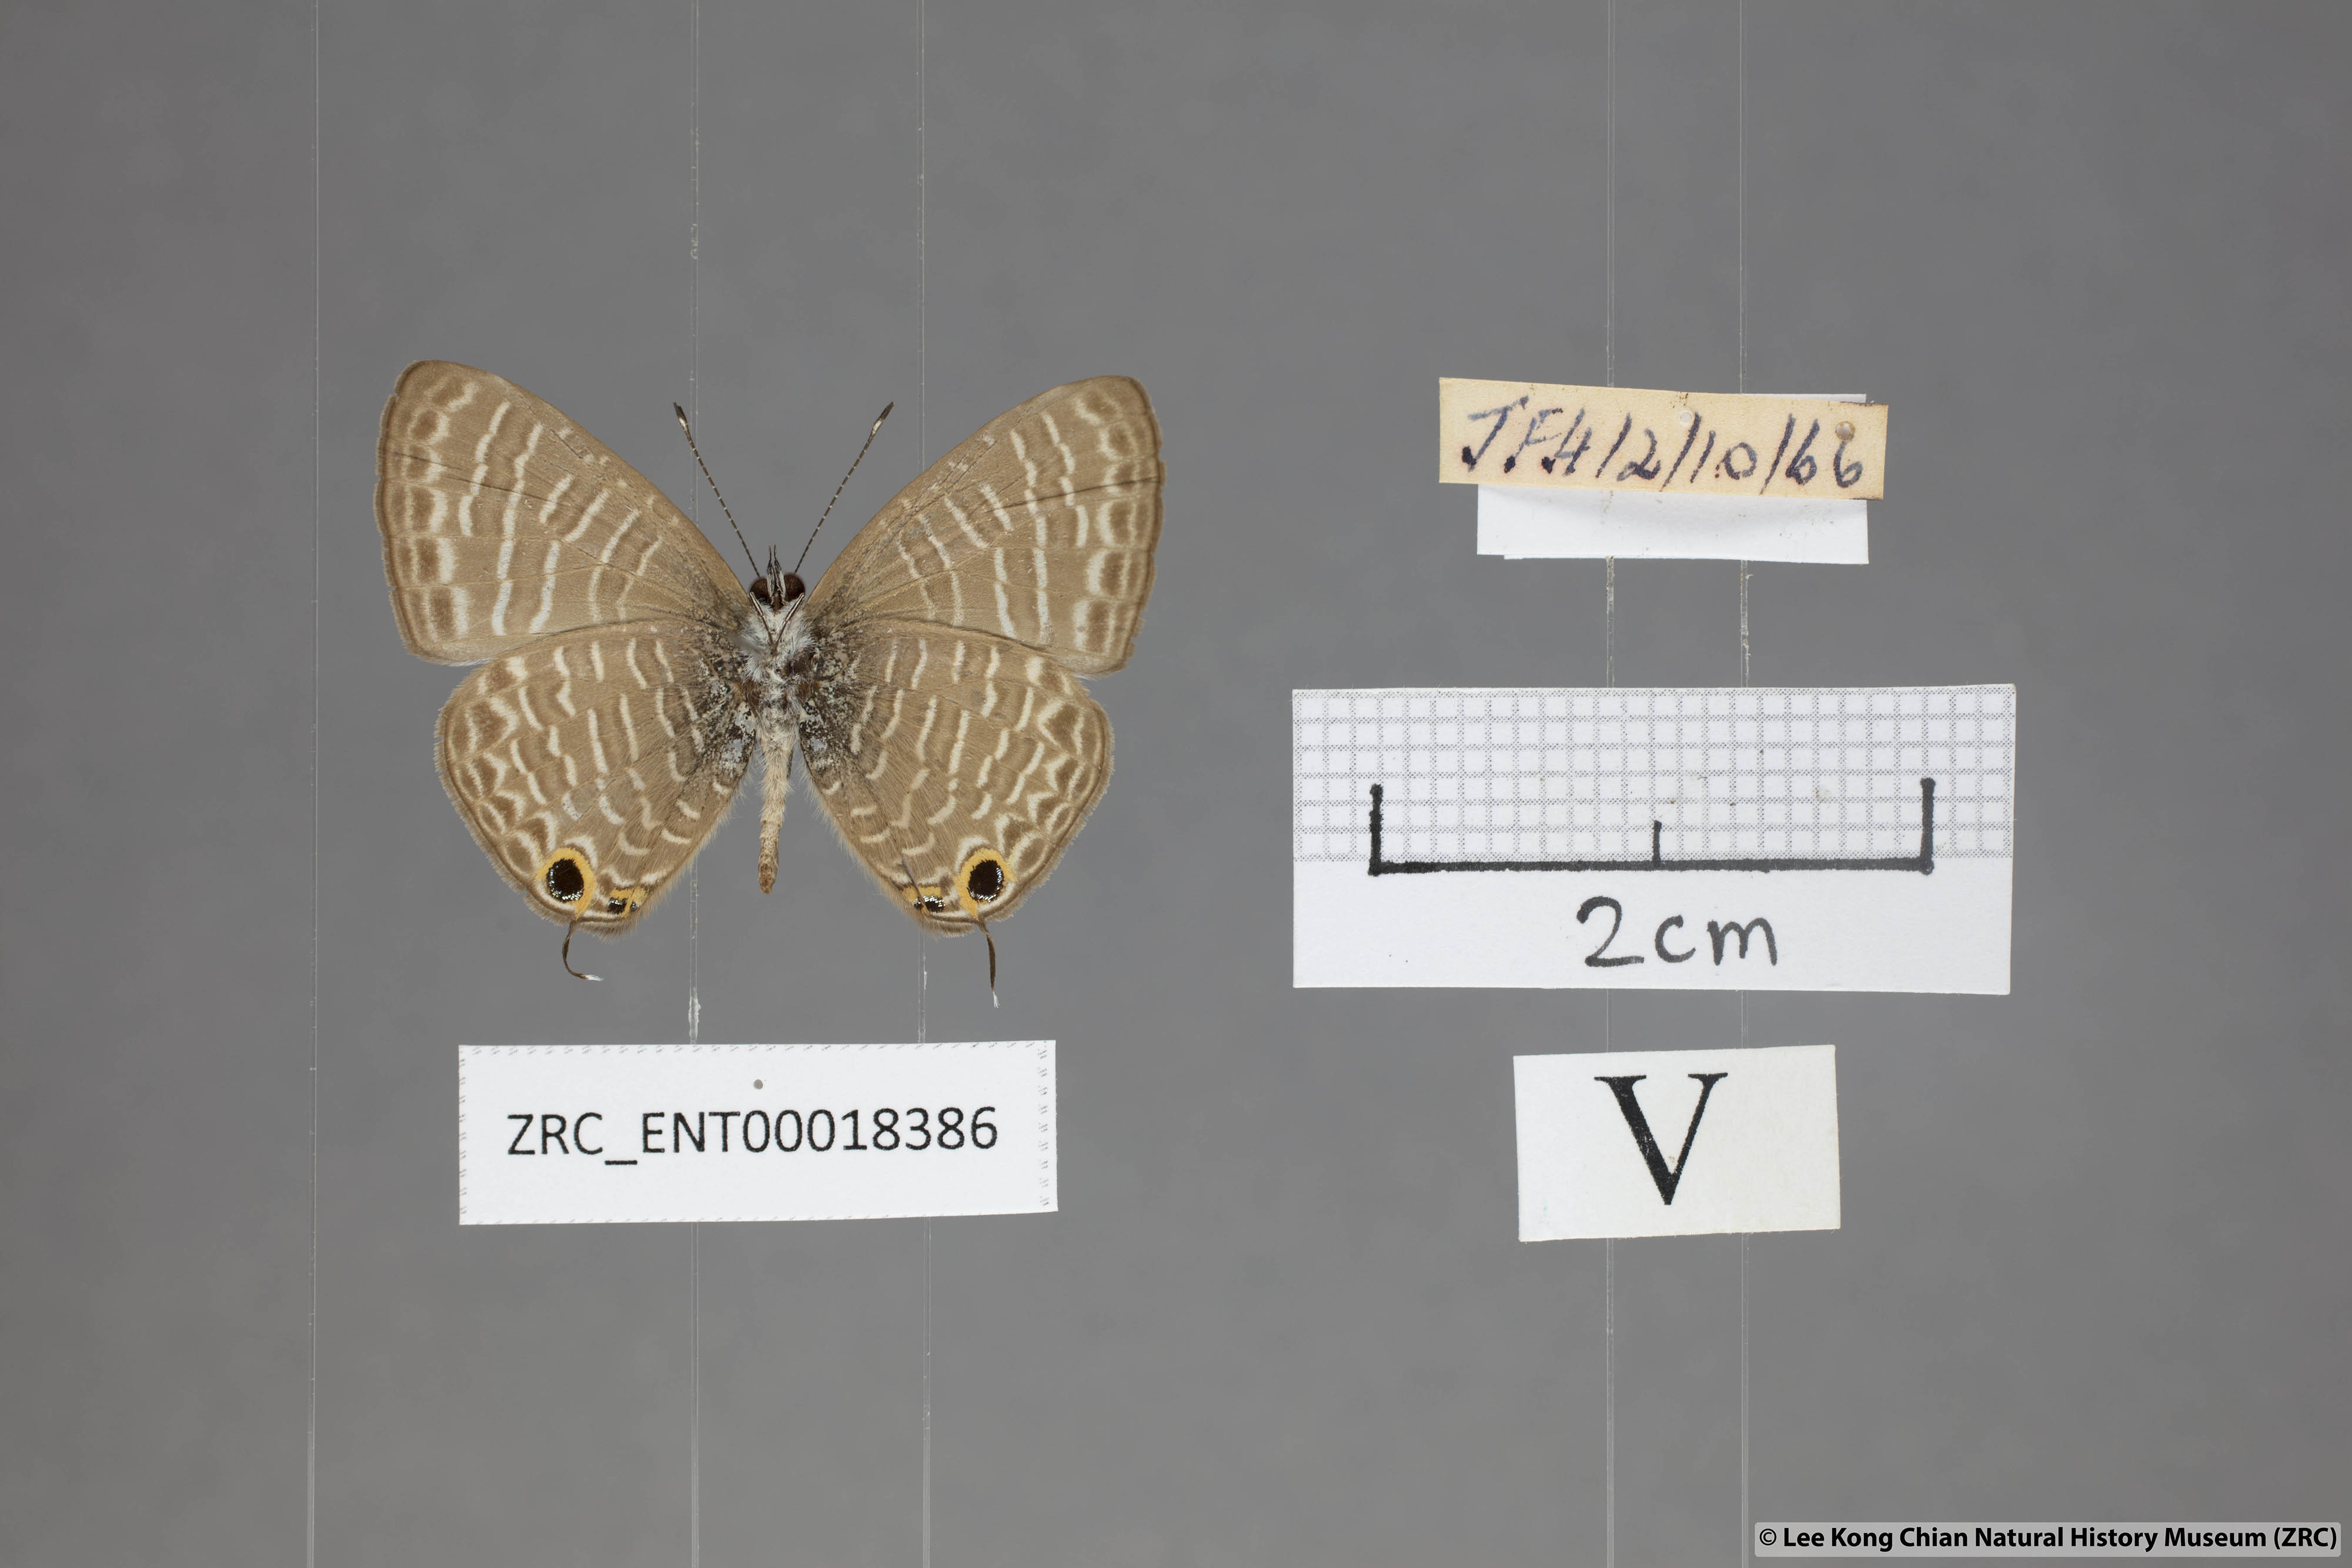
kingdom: Animalia
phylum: Arthropoda
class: Insecta
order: Lepidoptera
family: Lycaenidae
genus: Nacaduba
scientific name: Nacaduba kurava
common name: Transparent 6-line blue
